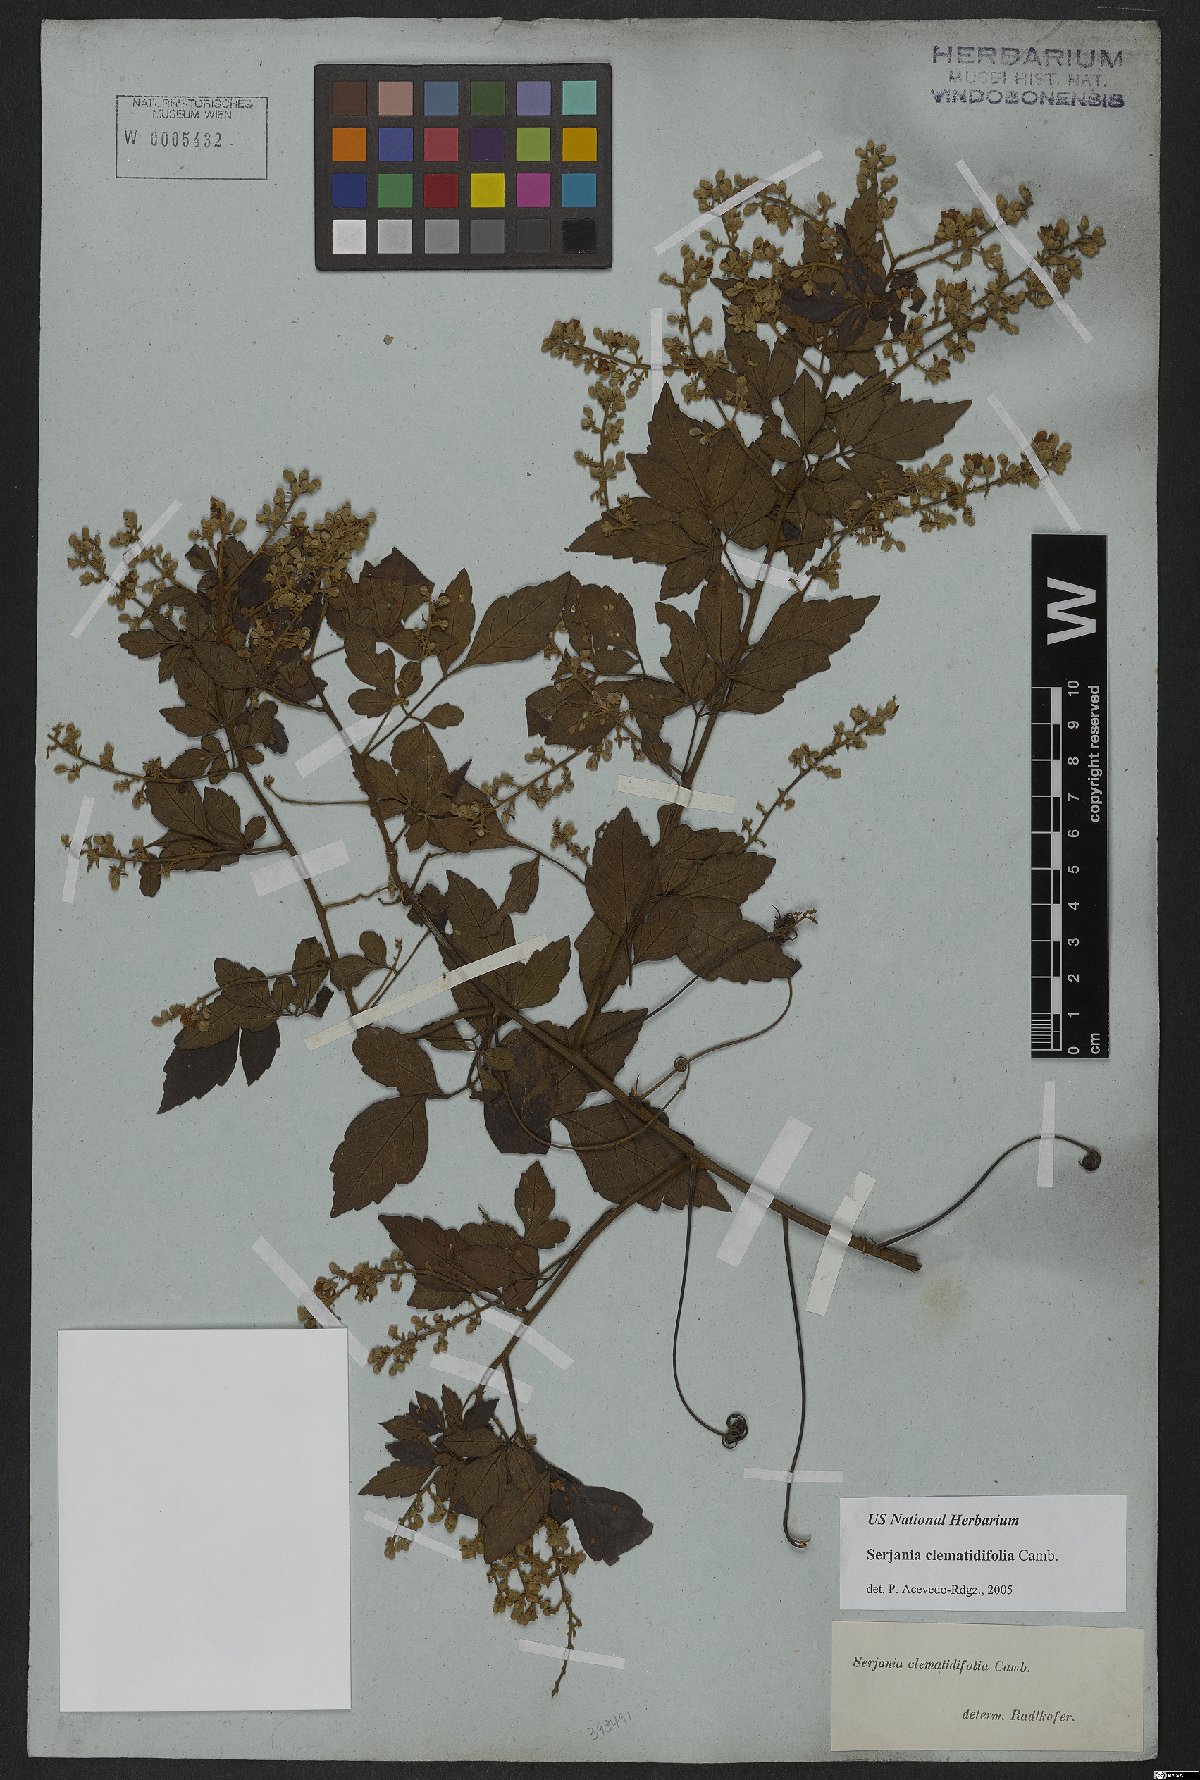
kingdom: Plantae
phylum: Tracheophyta
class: Magnoliopsida
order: Sapindales
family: Sapindaceae
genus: Serjania
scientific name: Serjania clematidifolia
